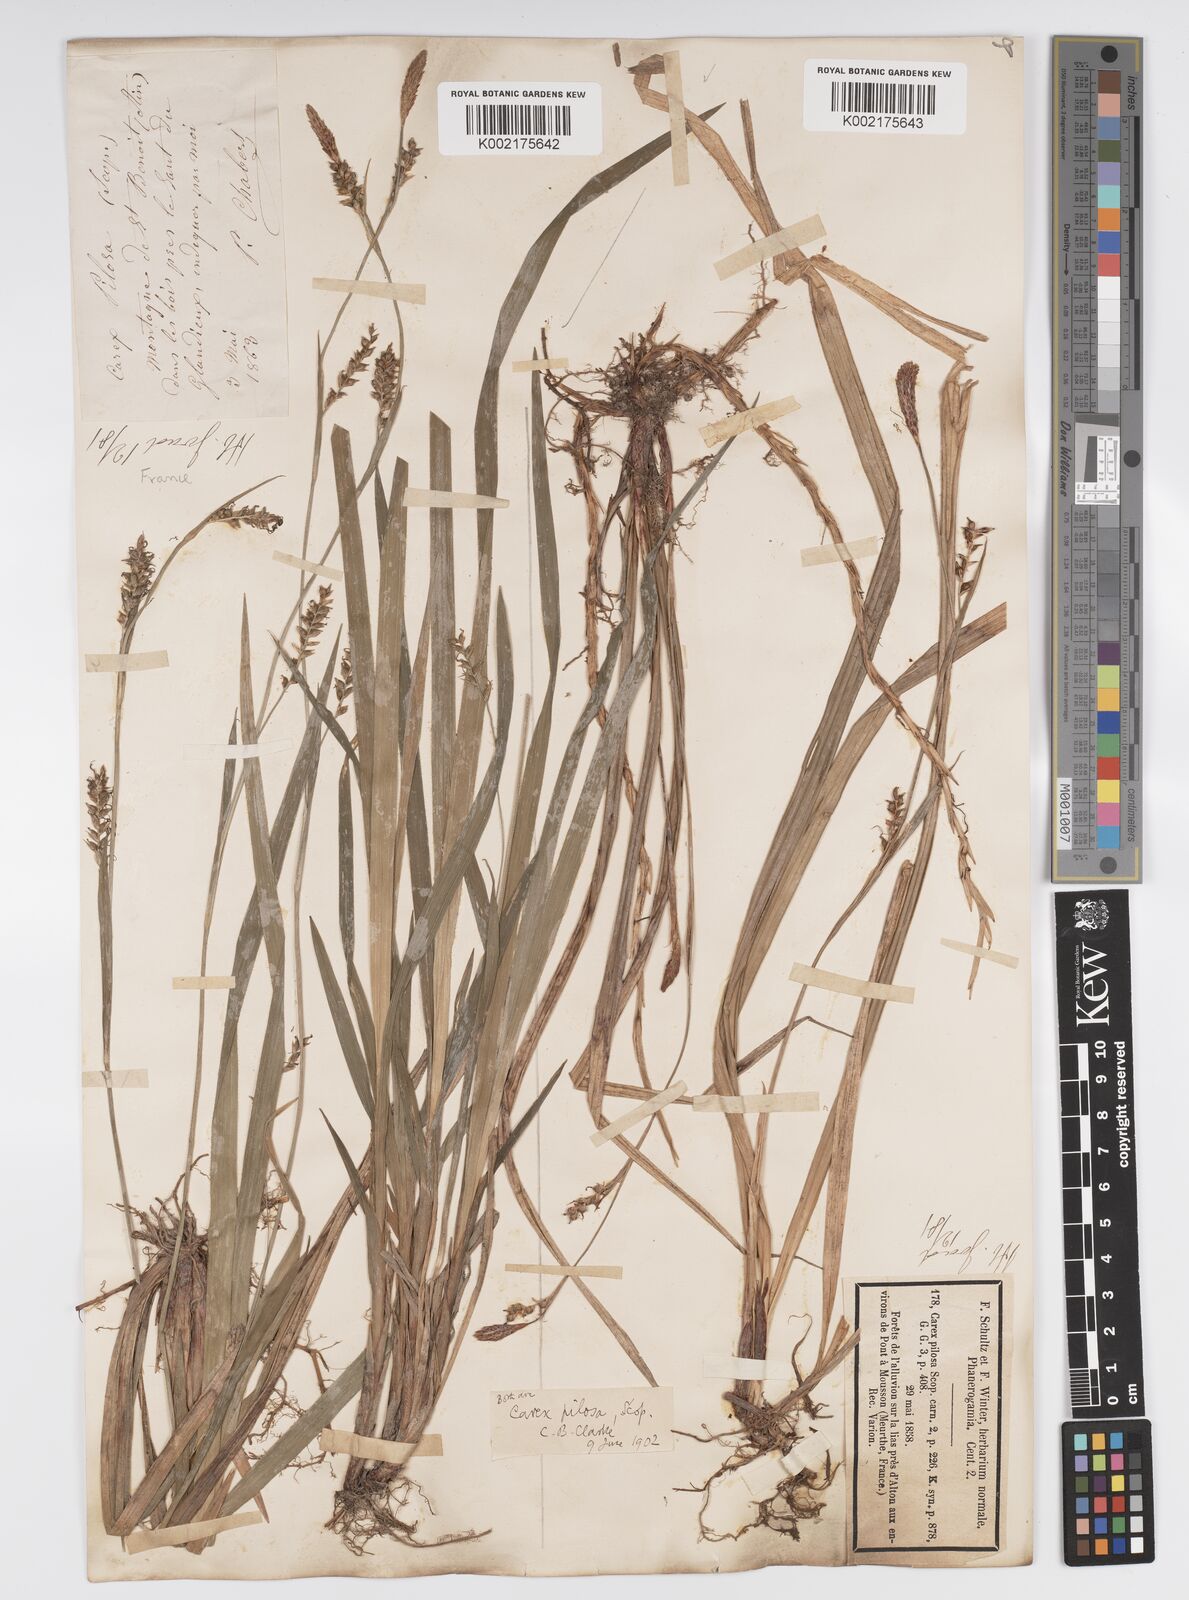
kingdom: Plantae
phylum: Tracheophyta
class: Liliopsida
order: Poales
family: Cyperaceae
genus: Carex
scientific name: Carex pilosa
